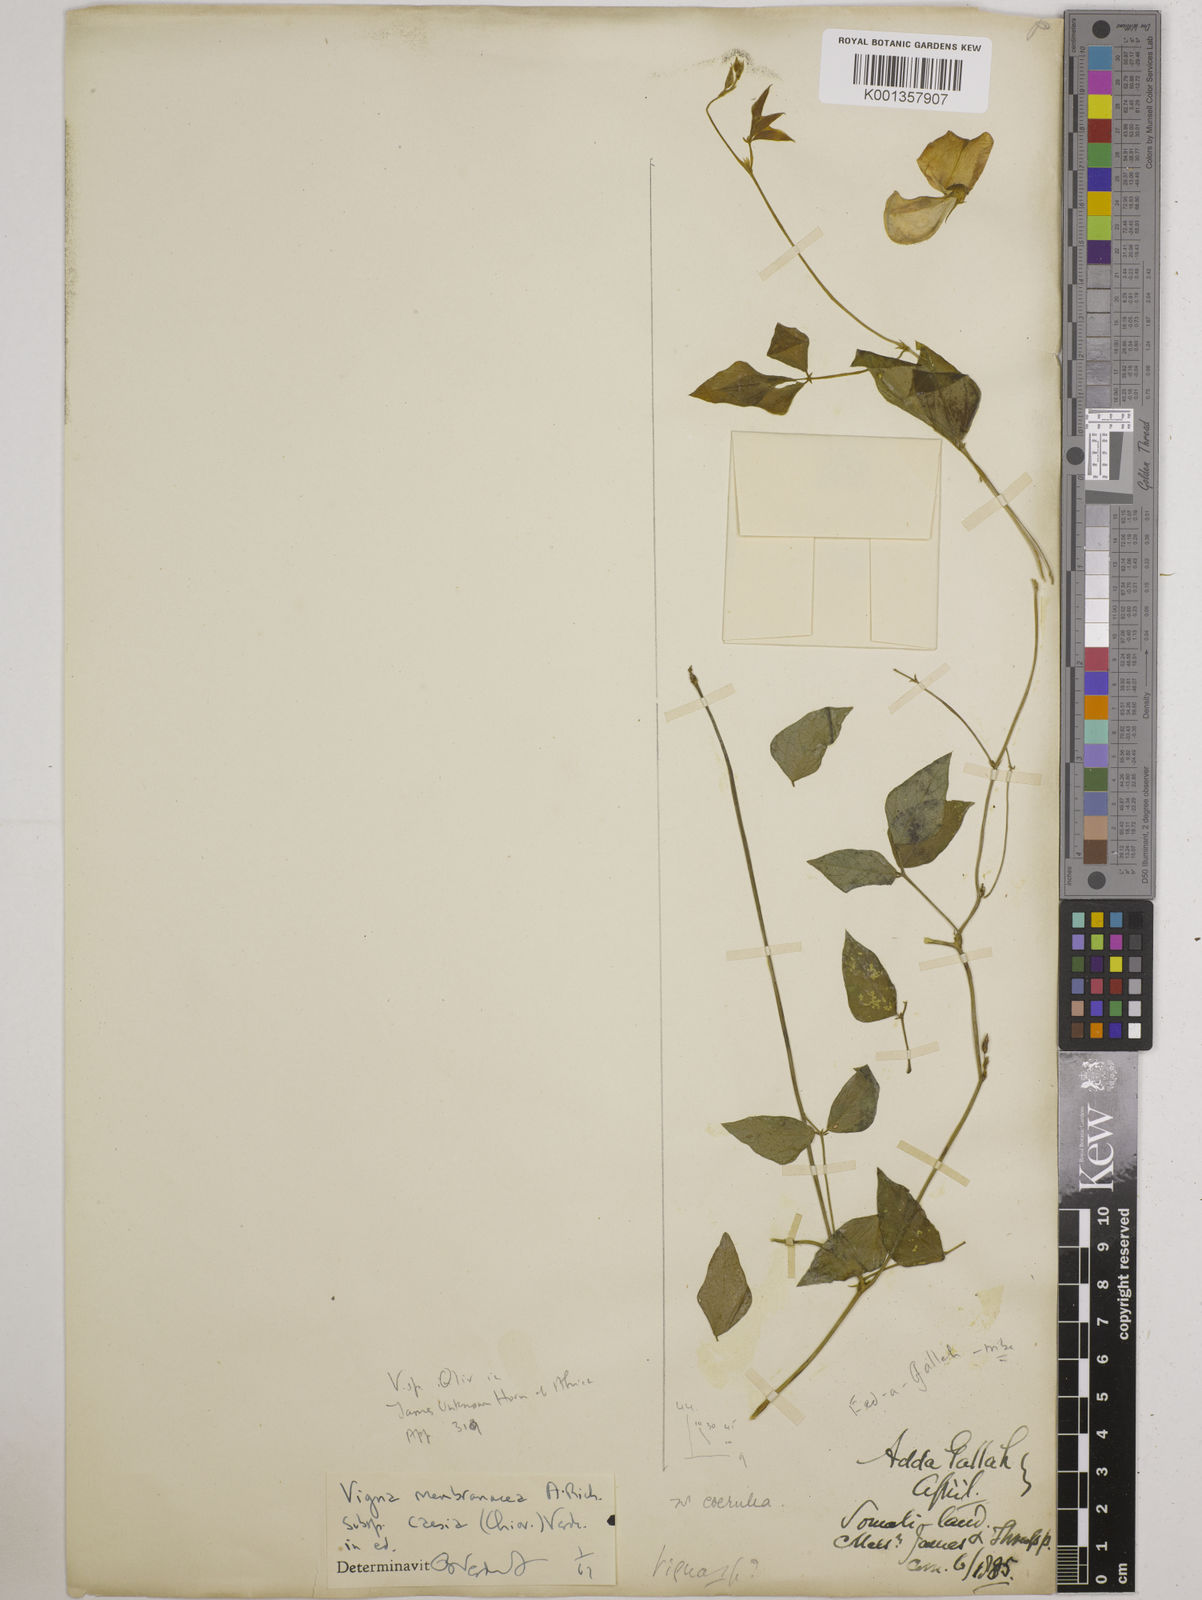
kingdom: Plantae
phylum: Tracheophyta
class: Magnoliopsida
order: Fabales
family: Fabaceae
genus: Vigna
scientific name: Vigna
